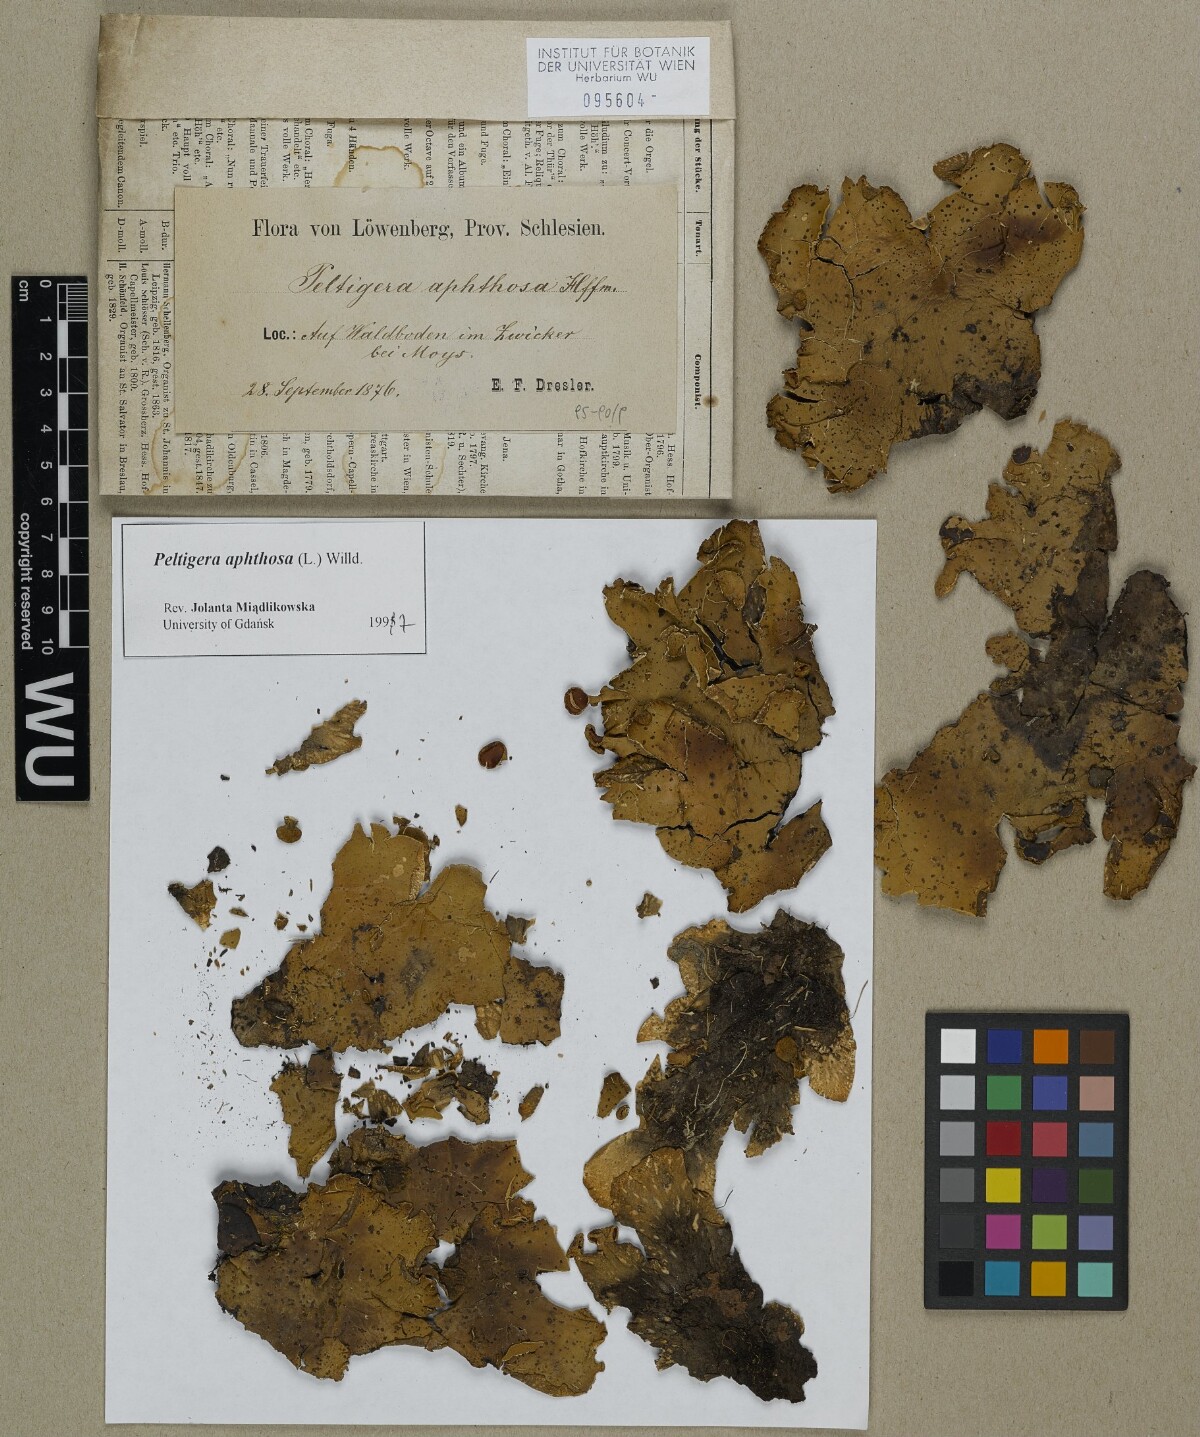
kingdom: Fungi
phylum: Ascomycota
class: Lecanoromycetes
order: Peltigerales
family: Peltigeraceae
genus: Peltigera
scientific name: Peltigera aphthosa
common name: Common freckle pelt lichen
